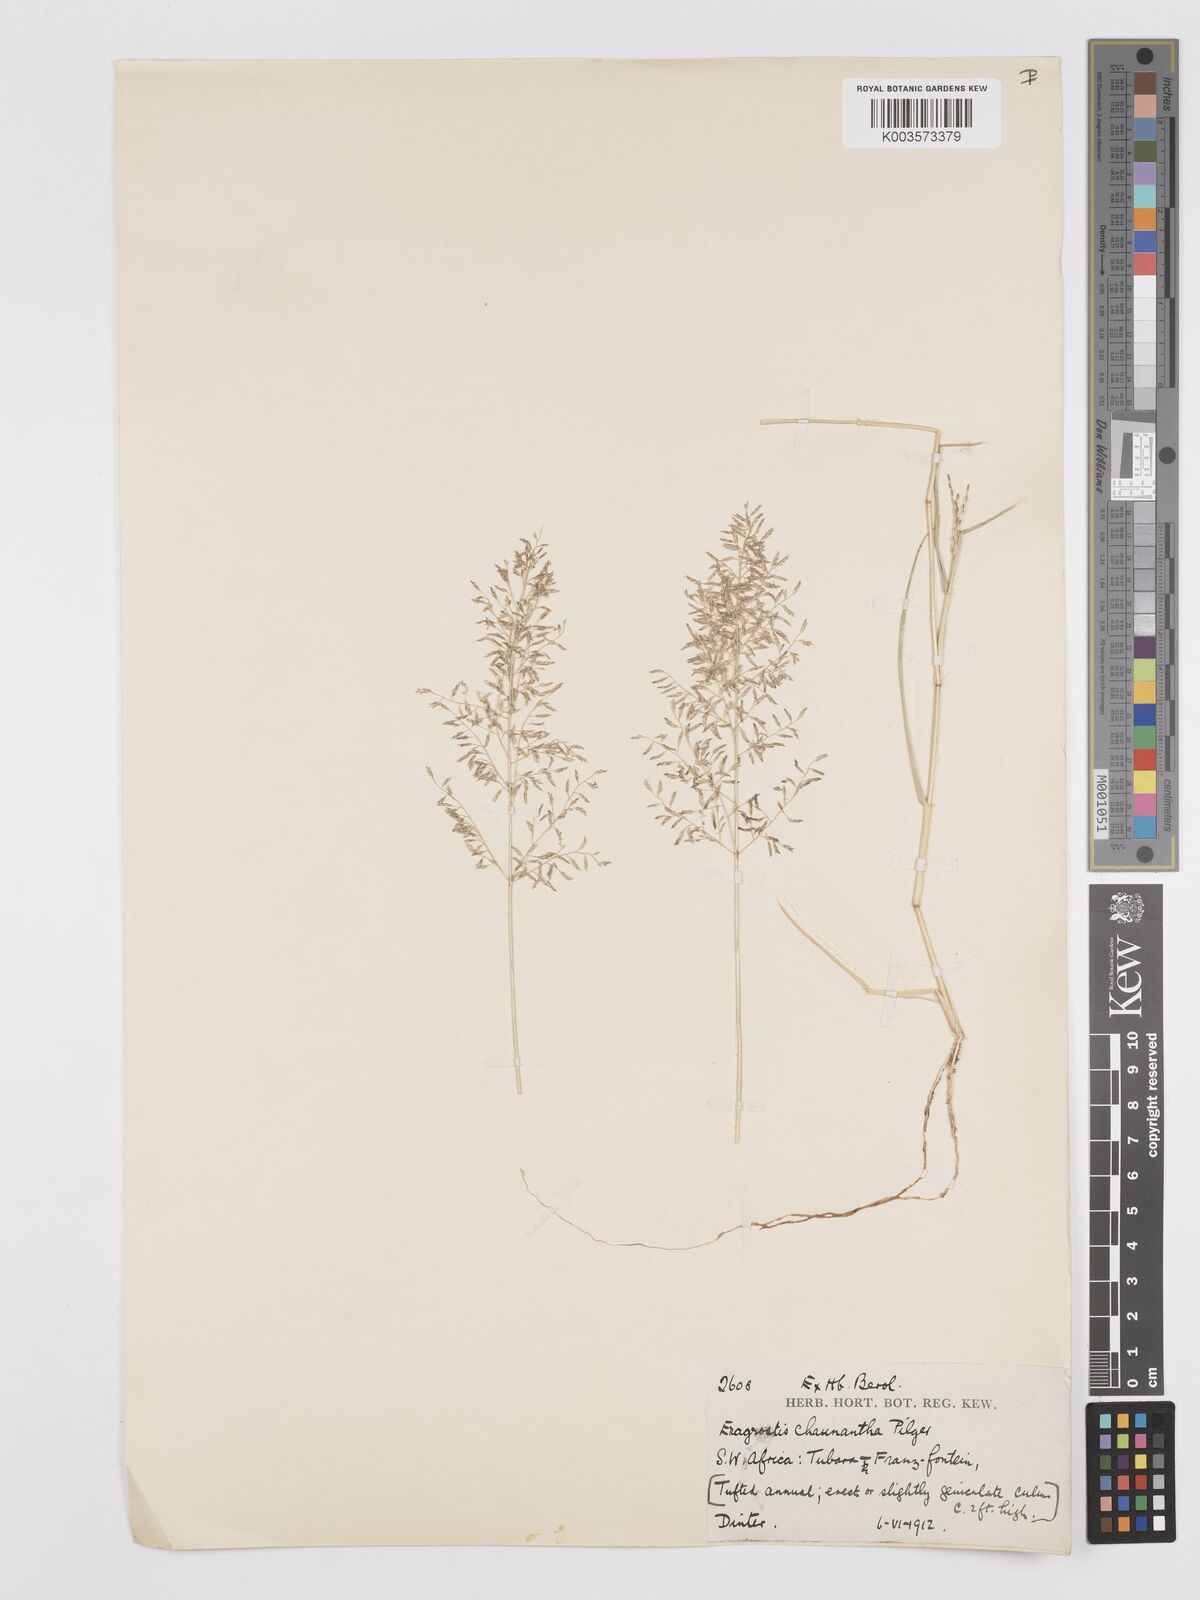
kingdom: Plantae
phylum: Tracheophyta
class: Liliopsida
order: Poales
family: Poaceae
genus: Eragrostis
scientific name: Eragrostis lehmanniana
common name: Lehmann lovegrass
